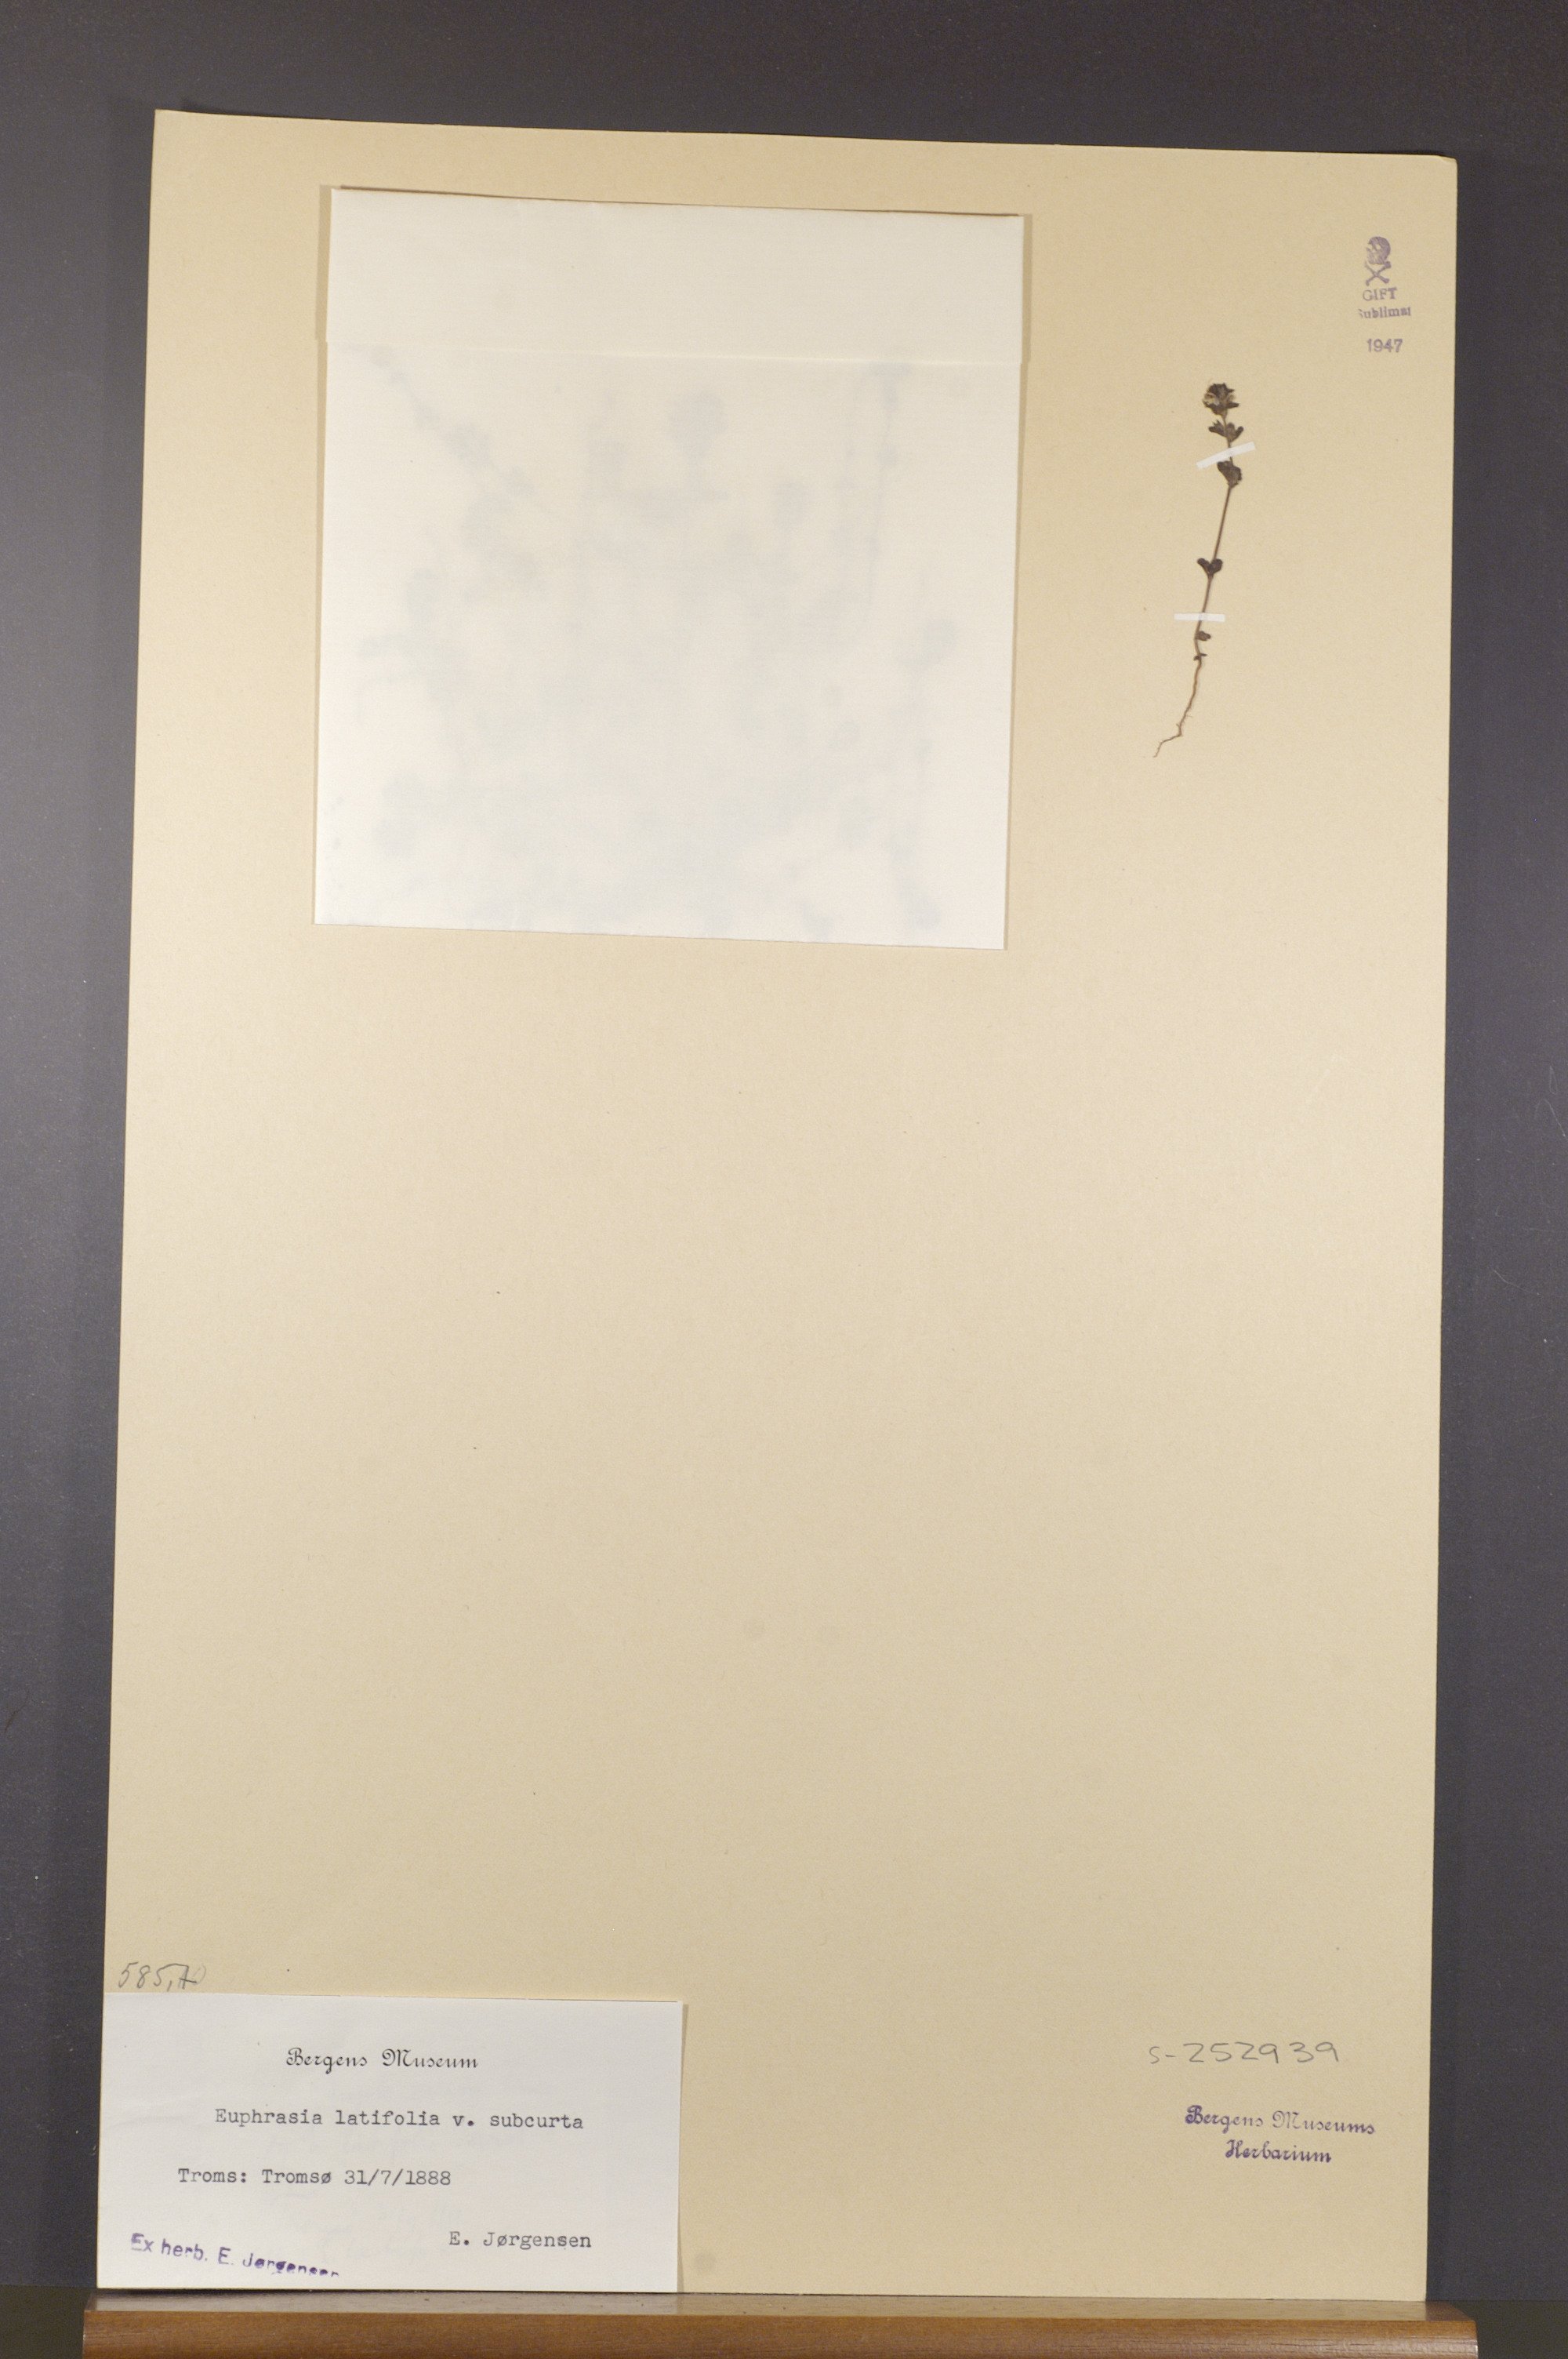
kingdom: Plantae
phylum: Tracheophyta
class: Magnoliopsida
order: Lamiales
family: Orobanchaceae
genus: Euphrasia
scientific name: Euphrasia wettsteinii
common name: Wettstein's eyebright
